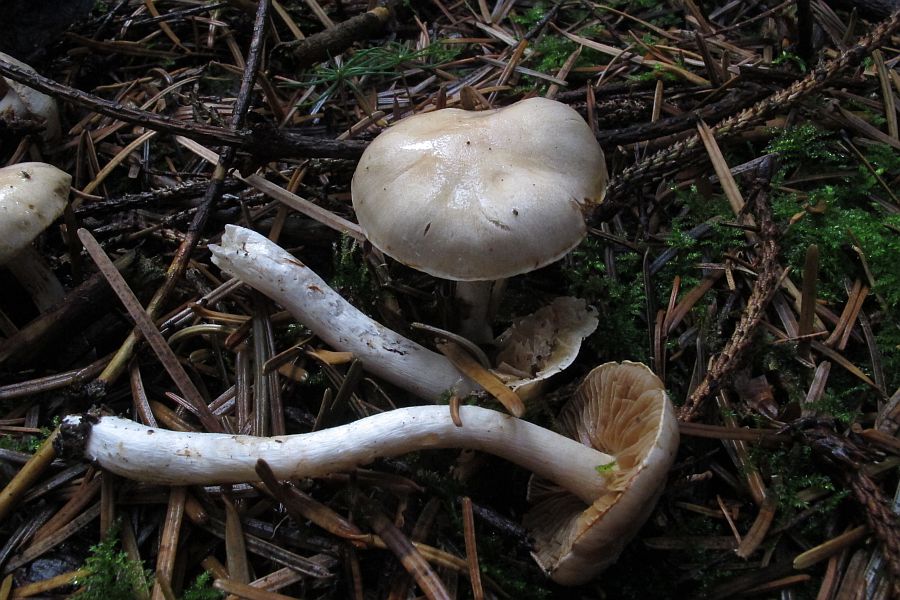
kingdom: Fungi
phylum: Basidiomycota
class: Agaricomycetes
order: Agaricales
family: Cortinariaceae
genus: Thaxterogaster
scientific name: Thaxterogaster leucoluteolus
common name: isabella slørhat
